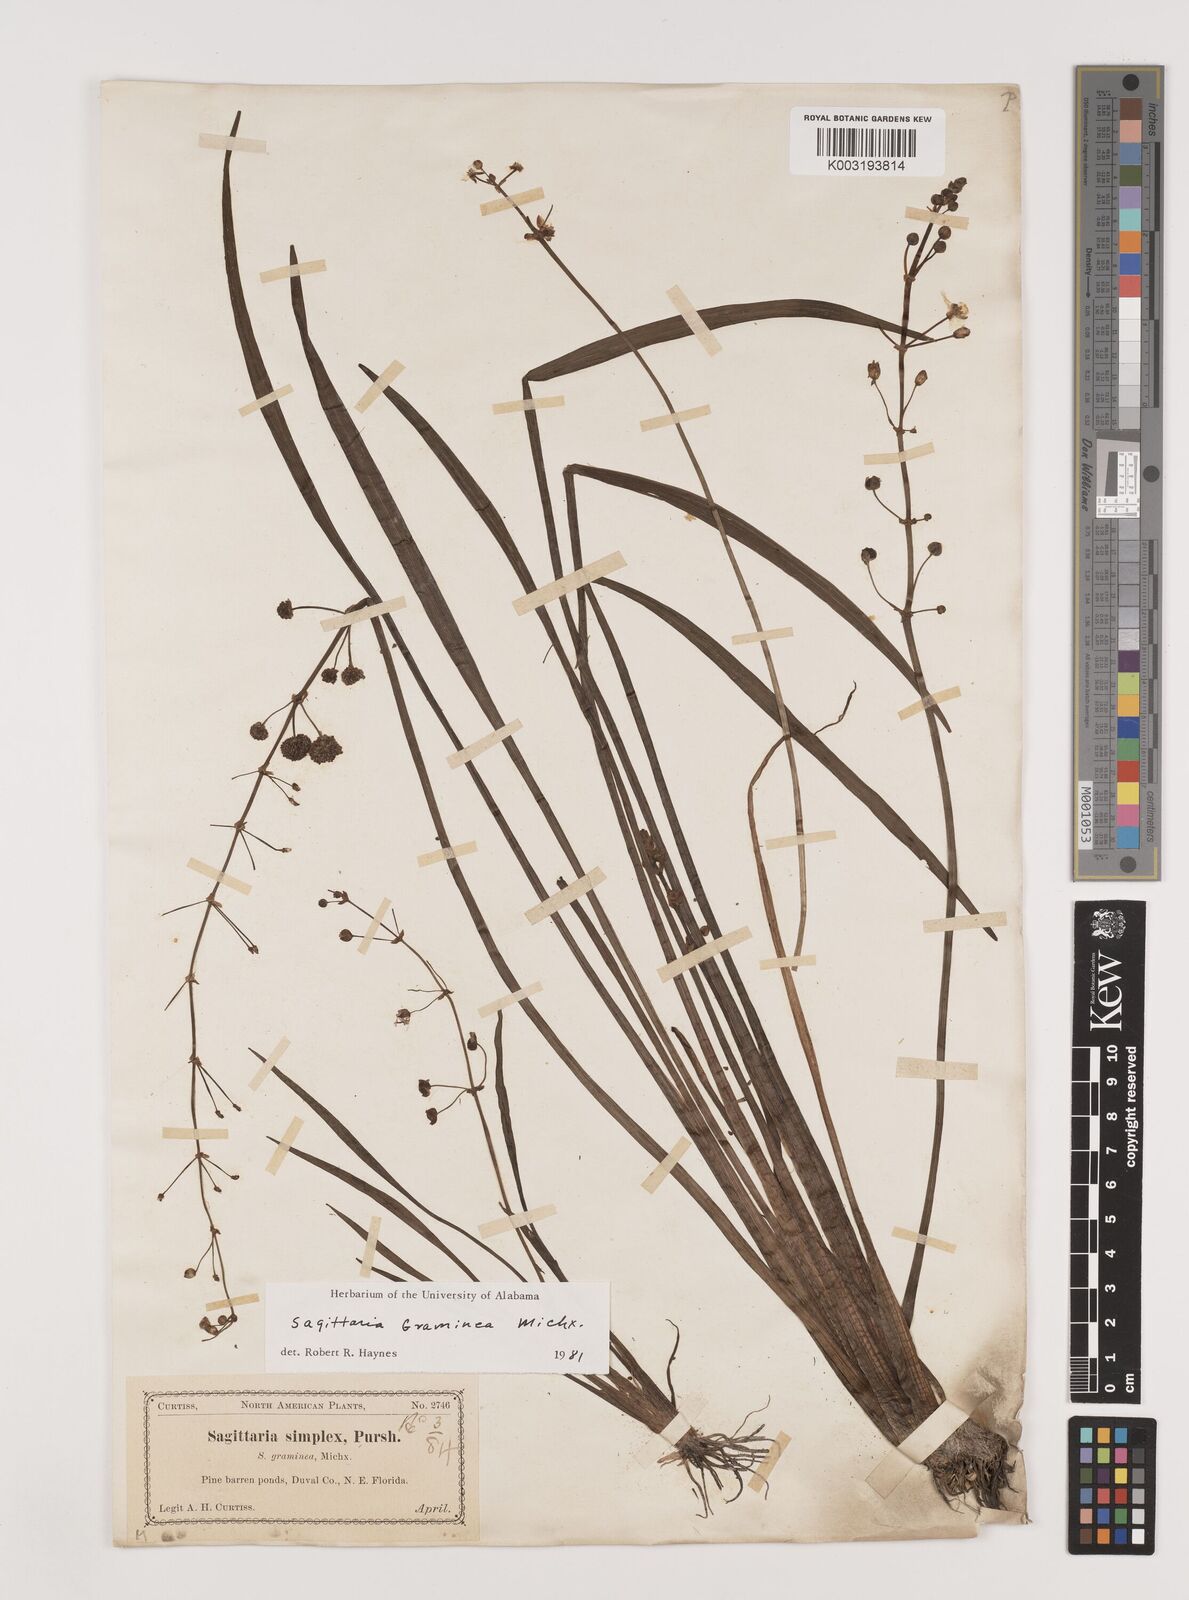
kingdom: Plantae
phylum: Tracheophyta
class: Liliopsida
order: Alismatales
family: Alismataceae
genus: Sagittaria
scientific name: Sagittaria graminea
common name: Grass-leaved arrowhead
